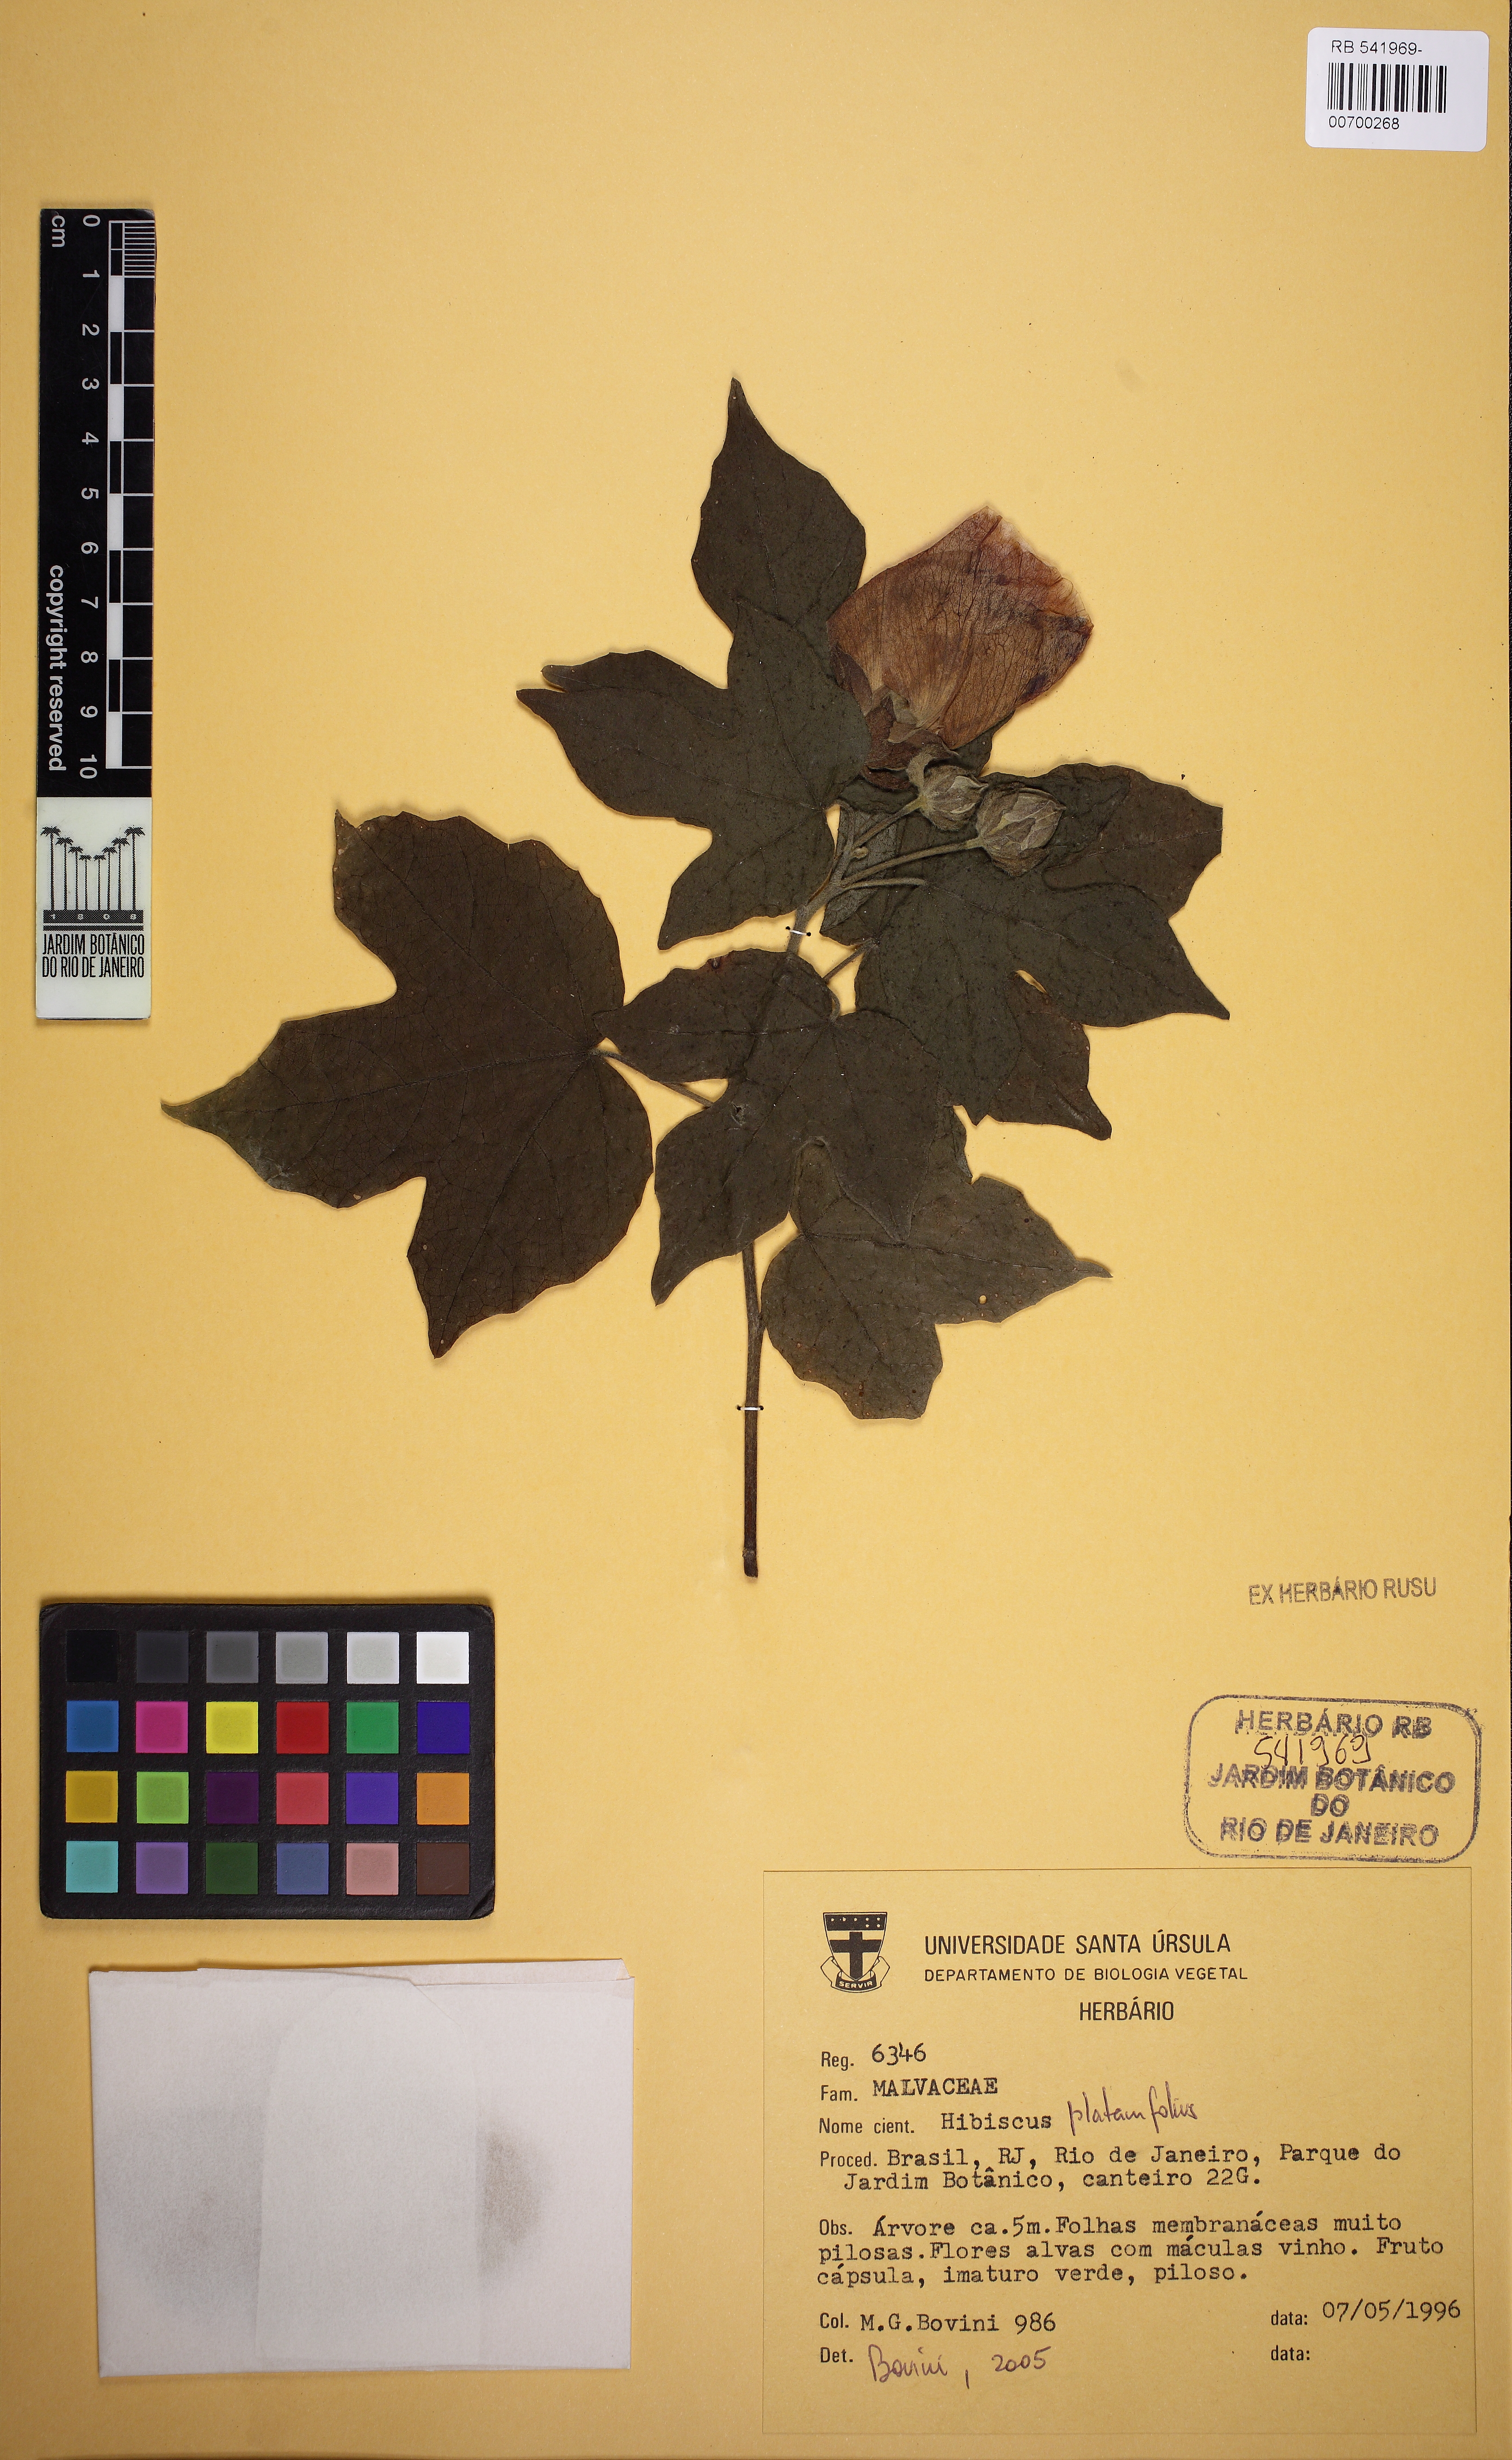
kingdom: Plantae
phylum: Tracheophyta
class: Magnoliopsida
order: Malvales
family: Malvaceae
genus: Hibiscus
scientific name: Hibiscus platanifolius
